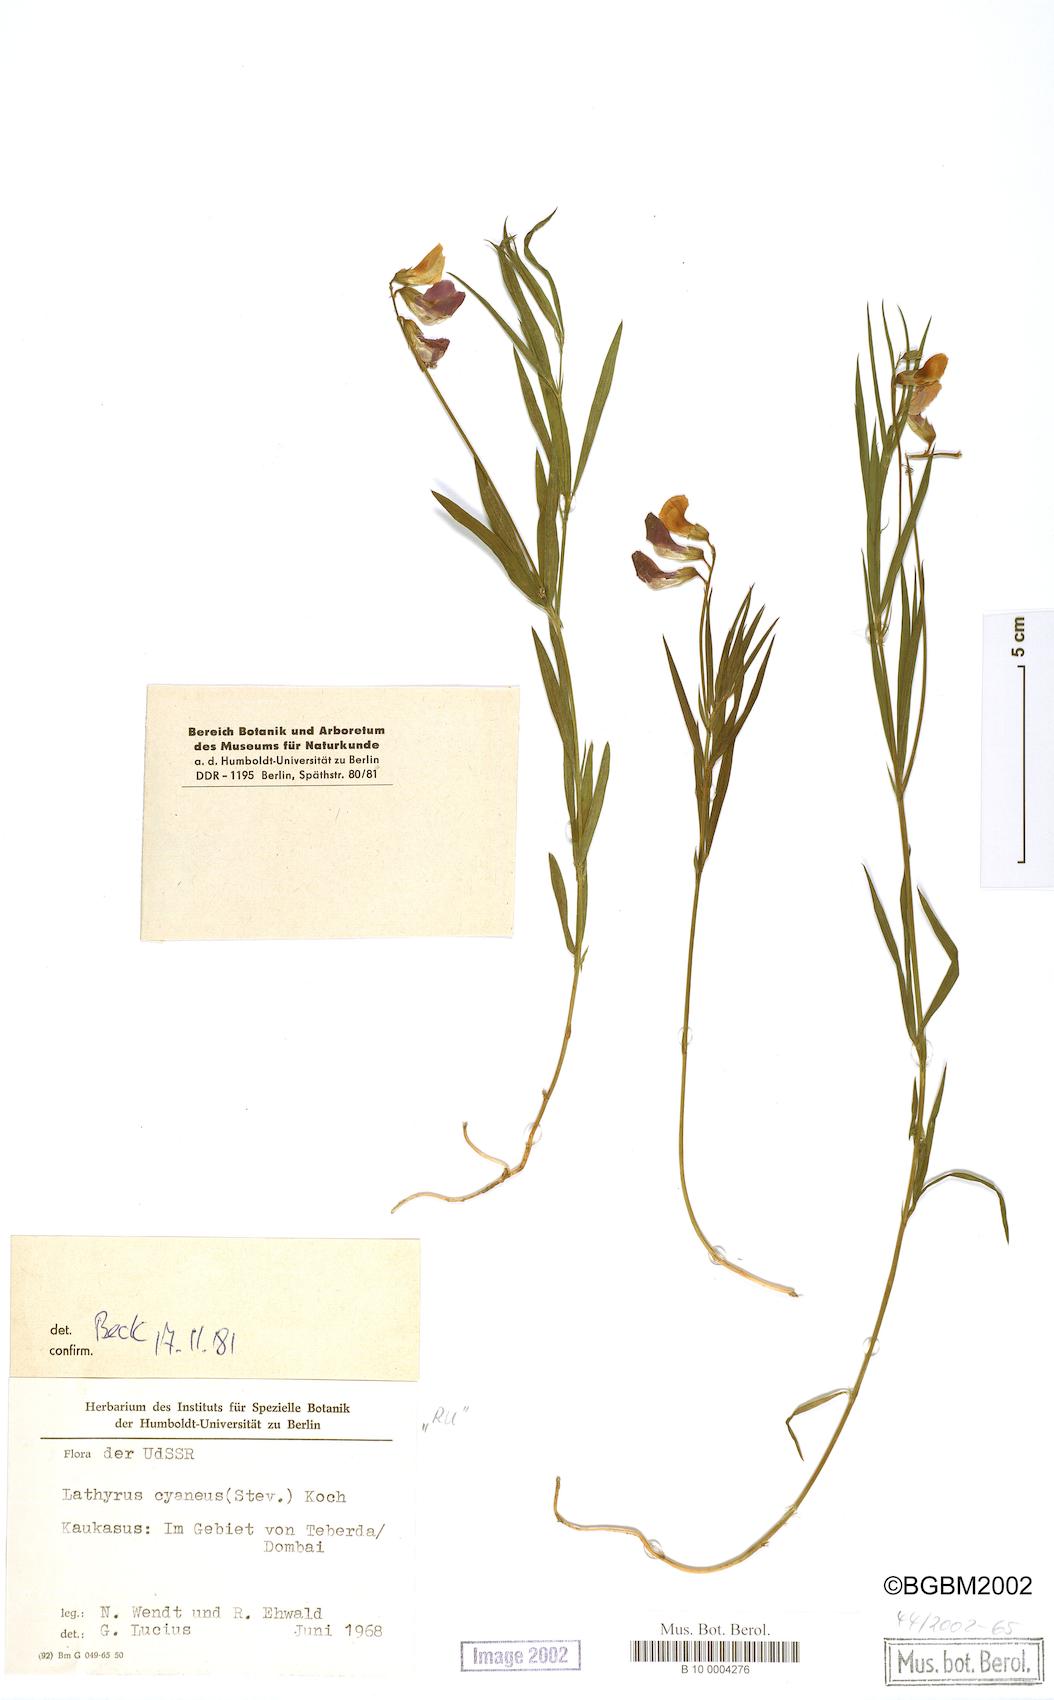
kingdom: Plantae
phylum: Tracheophyta
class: Magnoliopsida
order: Fabales
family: Fabaceae
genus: Lathyrus
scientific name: Lathyrus cyaneus
